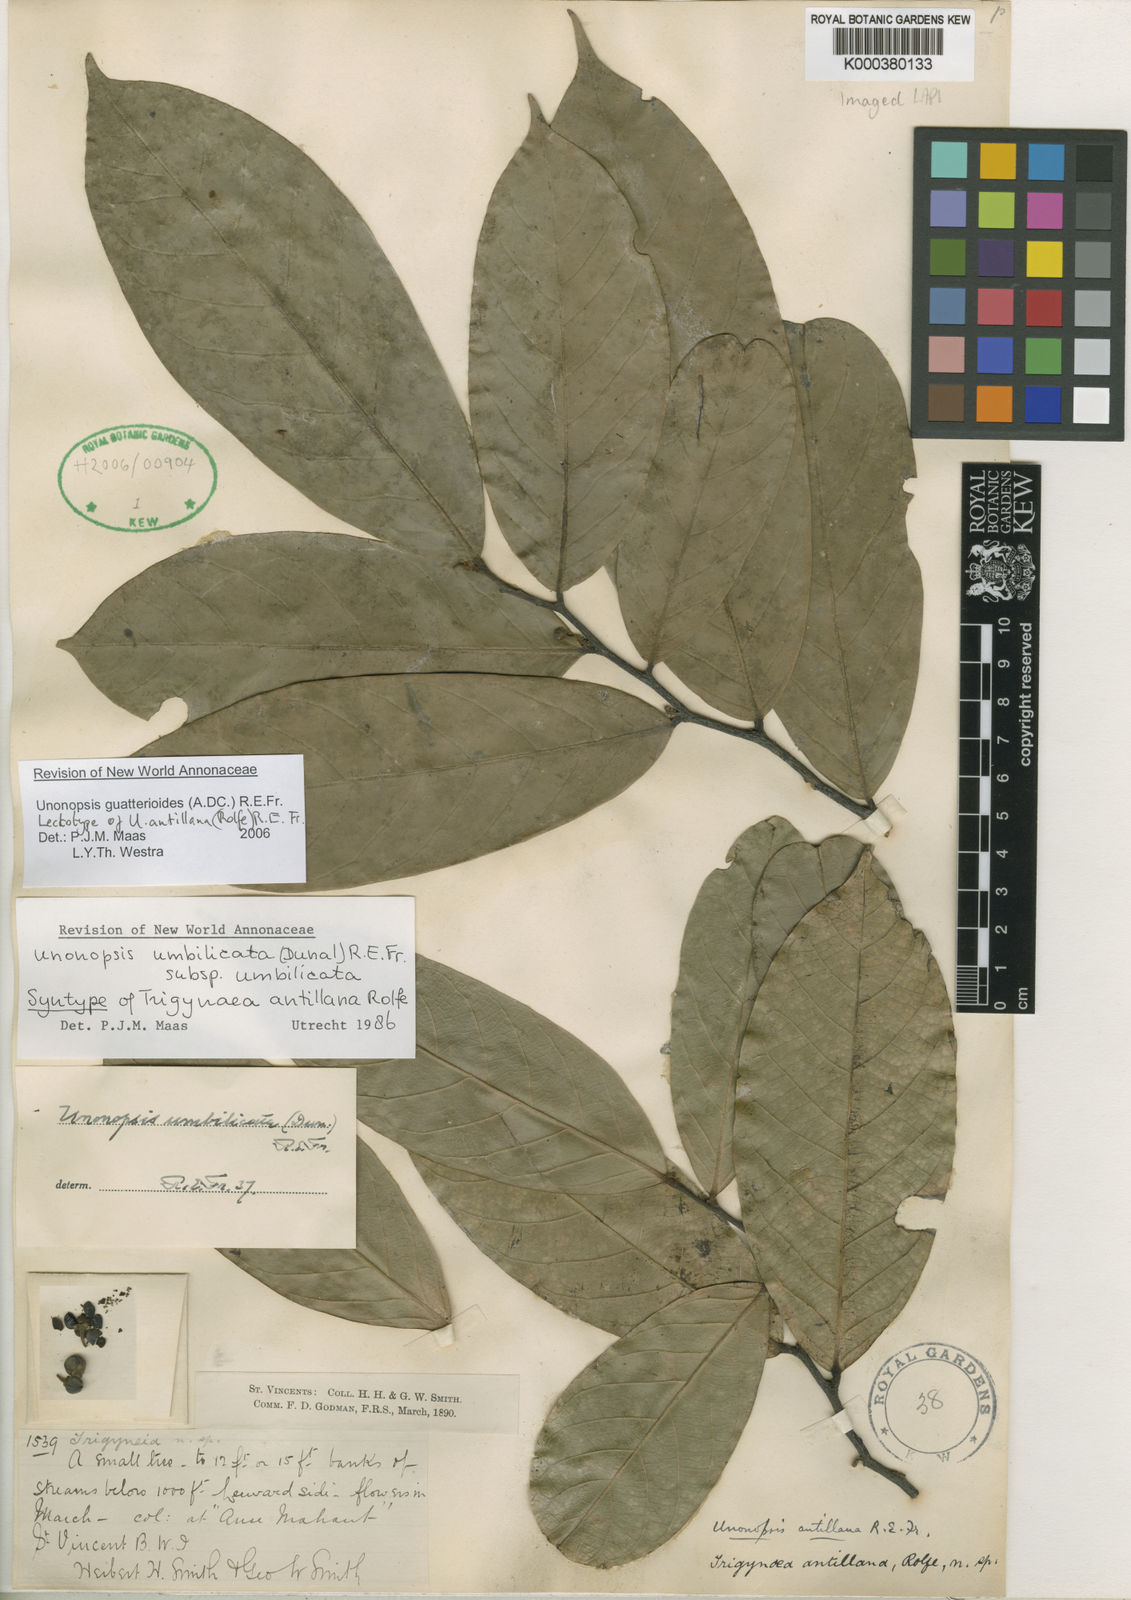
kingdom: Plantae
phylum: Tracheophyta
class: Magnoliopsida
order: Magnoliales
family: Annonaceae
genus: Unonopsis
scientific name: Unonopsis guatterioides
